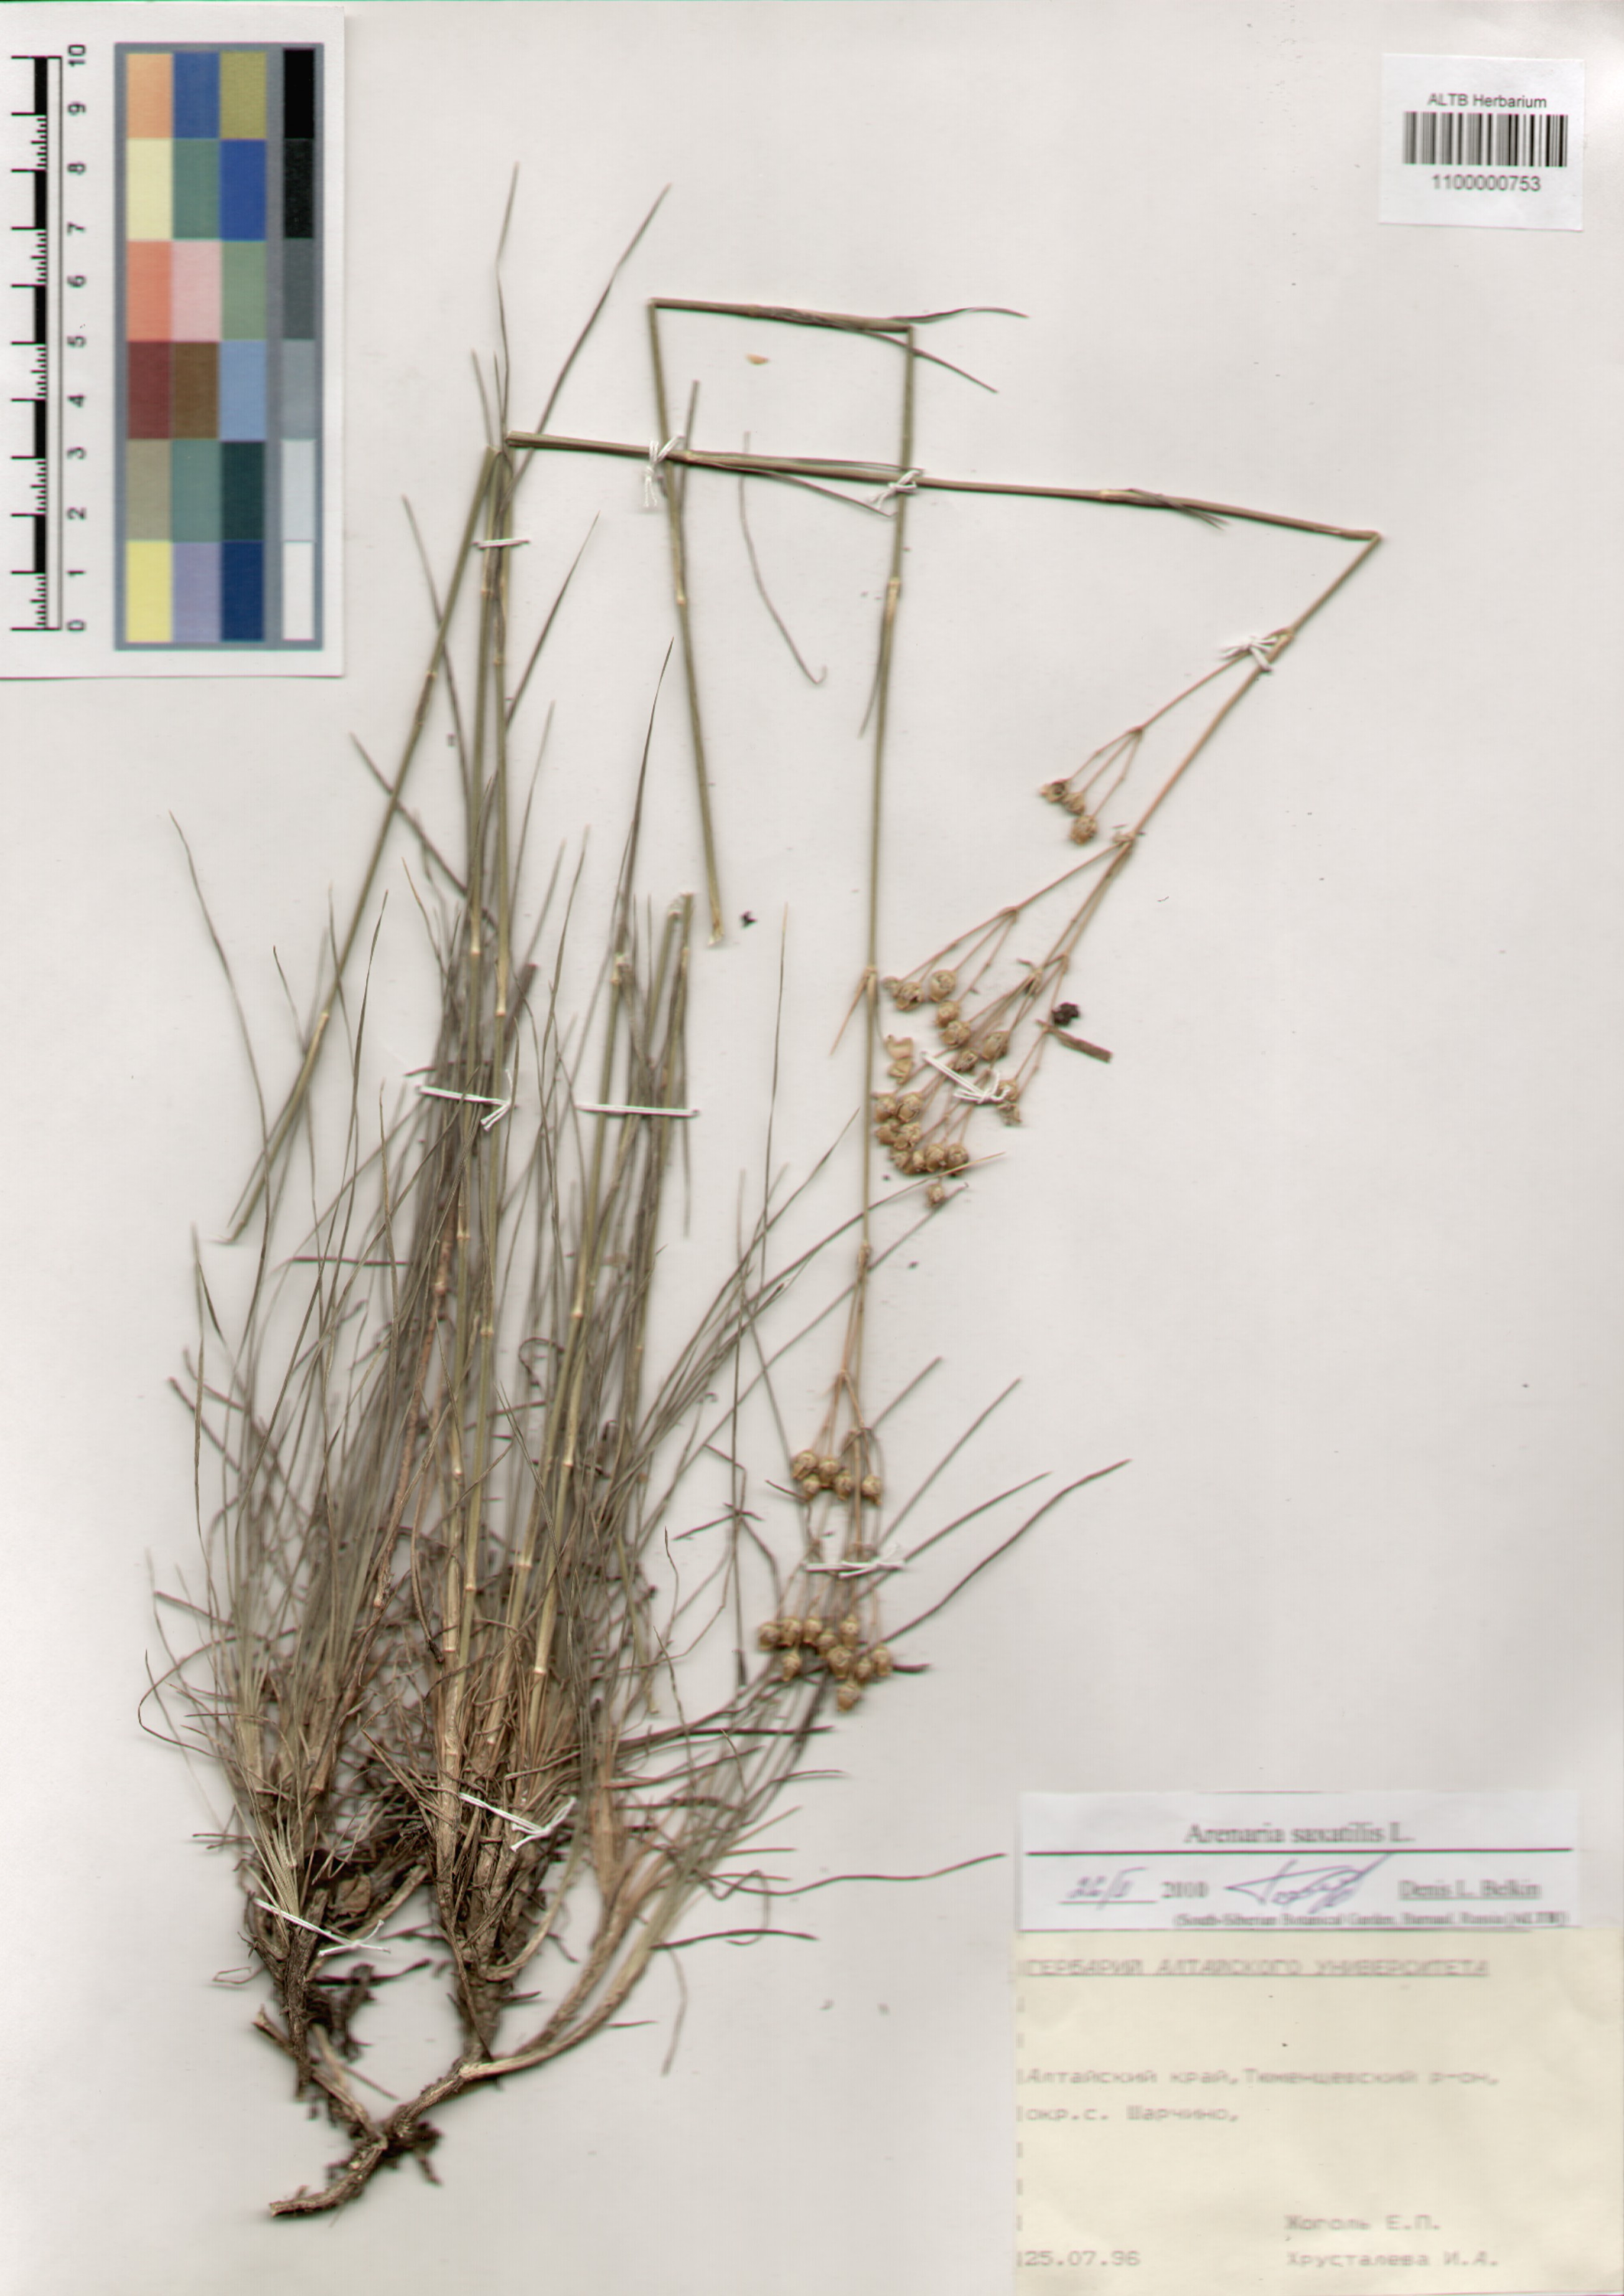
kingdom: Plantae
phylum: Tracheophyta
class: Magnoliopsida
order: Caryophyllales
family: Caryophyllaceae
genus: Eremogone
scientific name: Eremogone saxatilis
